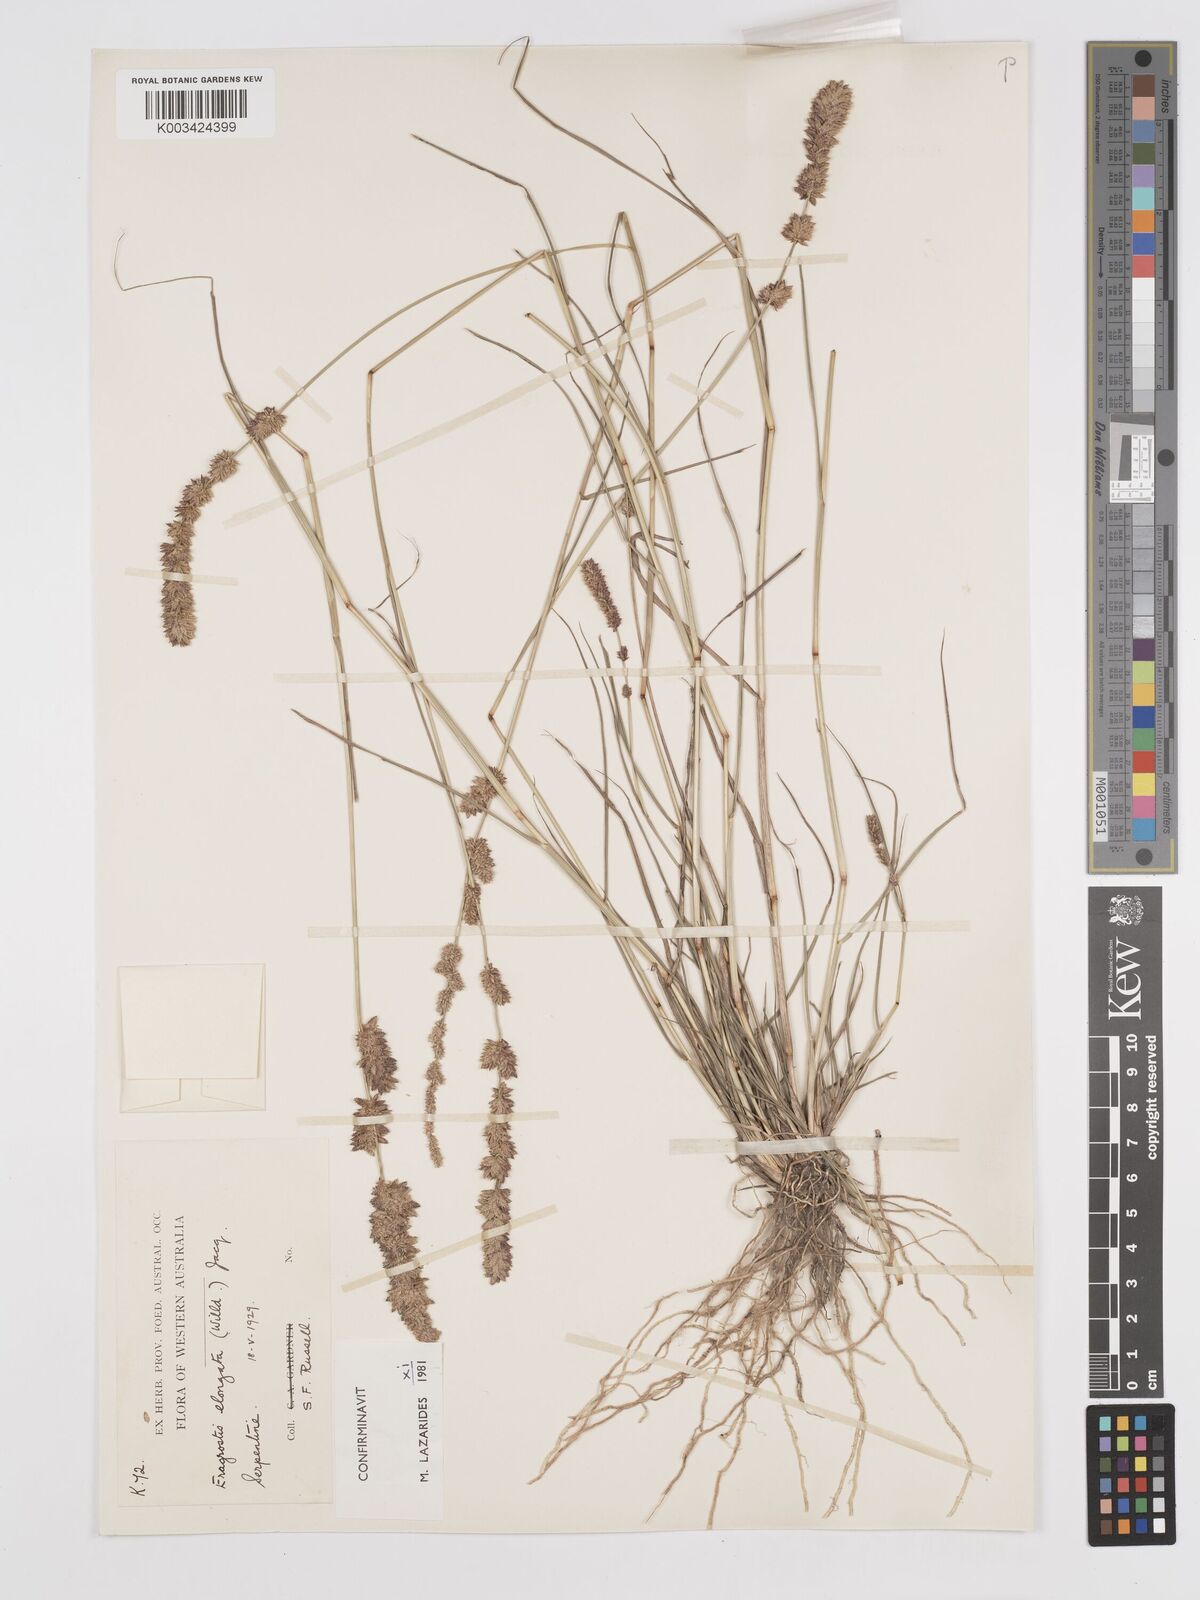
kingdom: Plantae
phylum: Tracheophyta
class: Liliopsida
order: Poales
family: Poaceae
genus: Eragrostis
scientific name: Eragrostis elongata
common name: Long lovegrass
